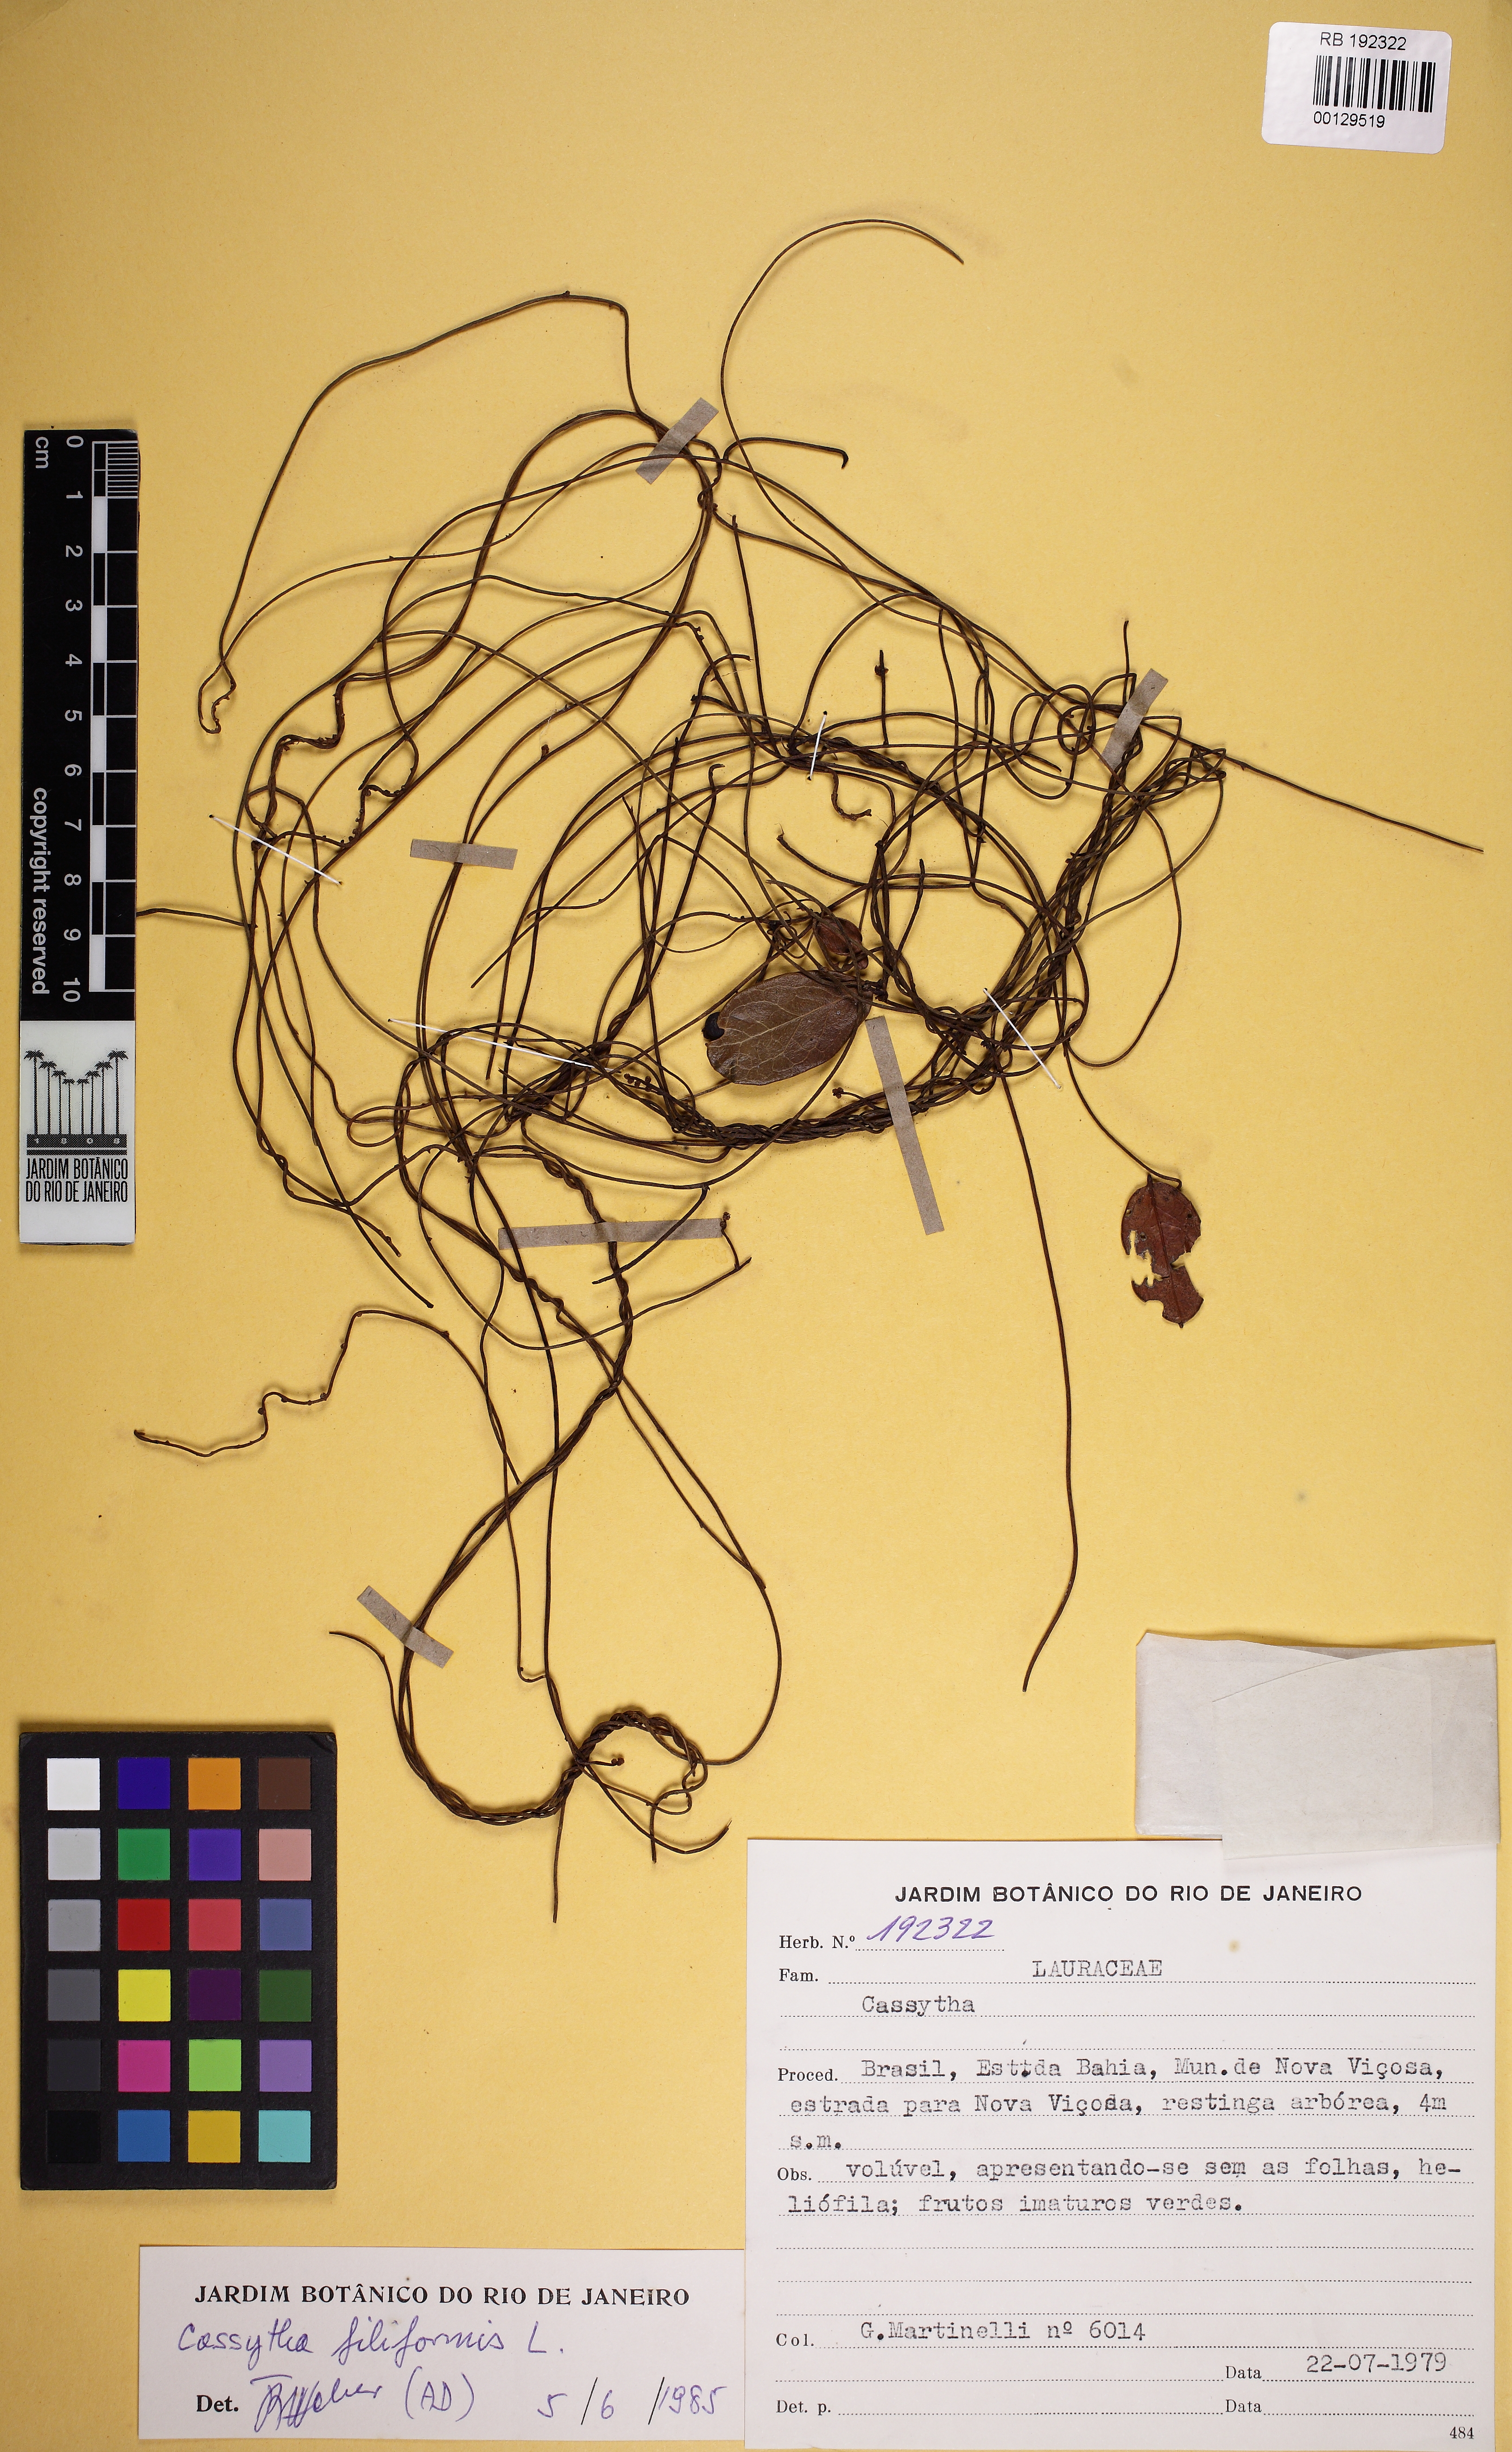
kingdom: Plantae
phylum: Tracheophyta
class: Magnoliopsida
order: Laurales
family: Lauraceae
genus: Cassytha
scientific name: Cassytha filiformis
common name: Dodder-laurel
